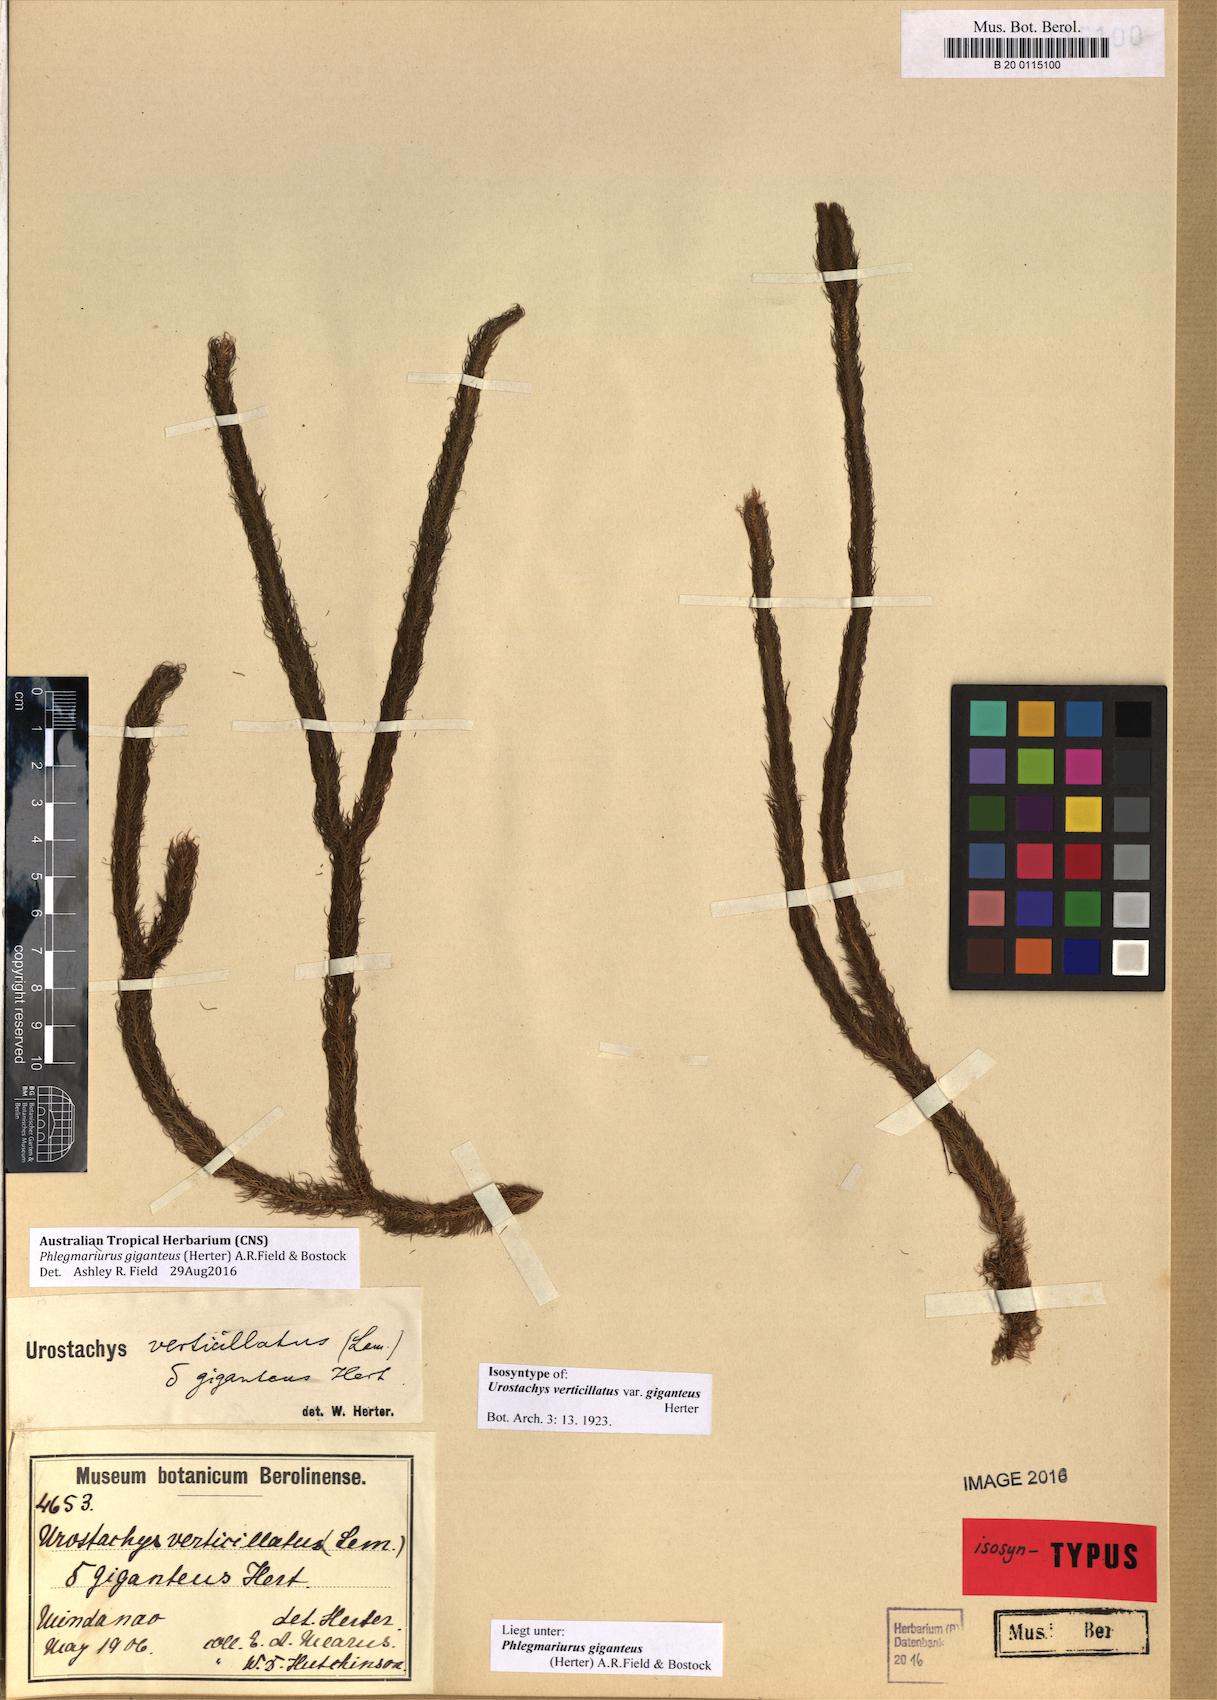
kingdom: Plantae
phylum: Tracheophyta
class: Lycopodiopsida
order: Lycopodiales
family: Lycopodiaceae
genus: Phlegmariurus
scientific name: Phlegmariurus giganteus
